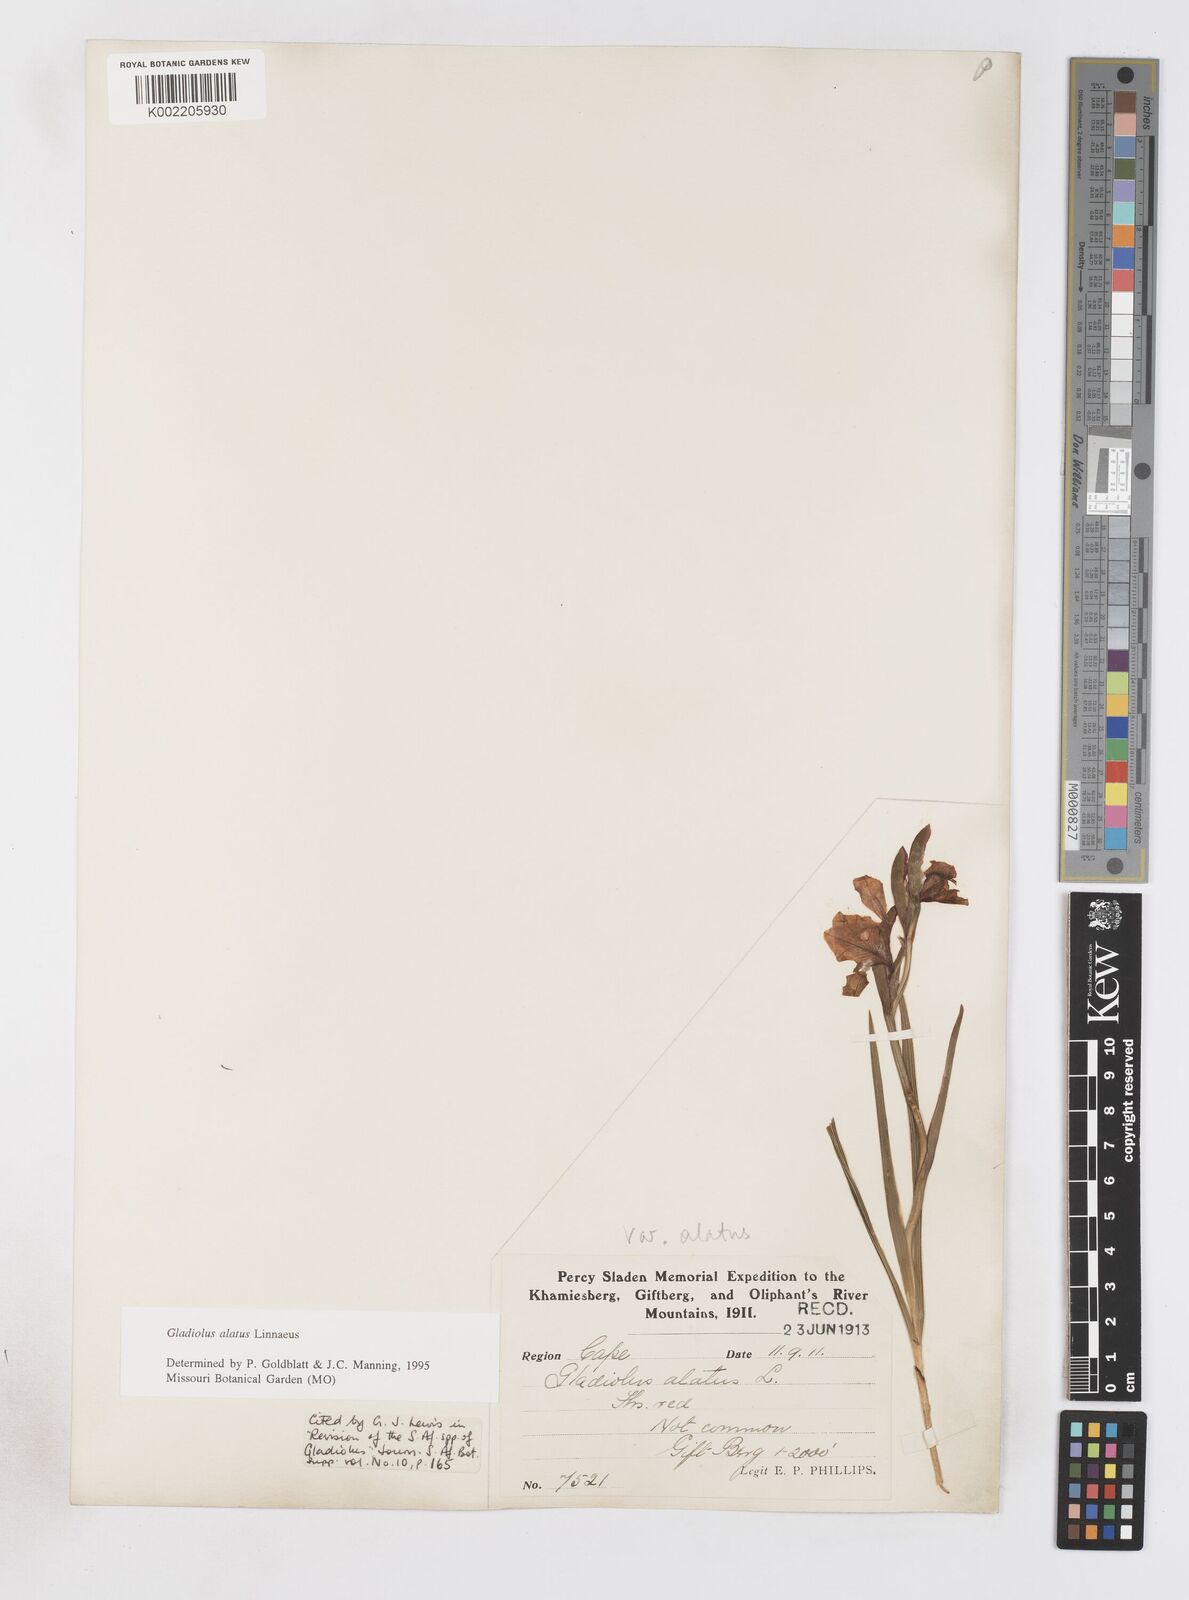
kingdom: Plantae
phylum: Tracheophyta
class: Liliopsida
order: Asparagales
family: Iridaceae
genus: Gladiolus
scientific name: Gladiolus alatus
